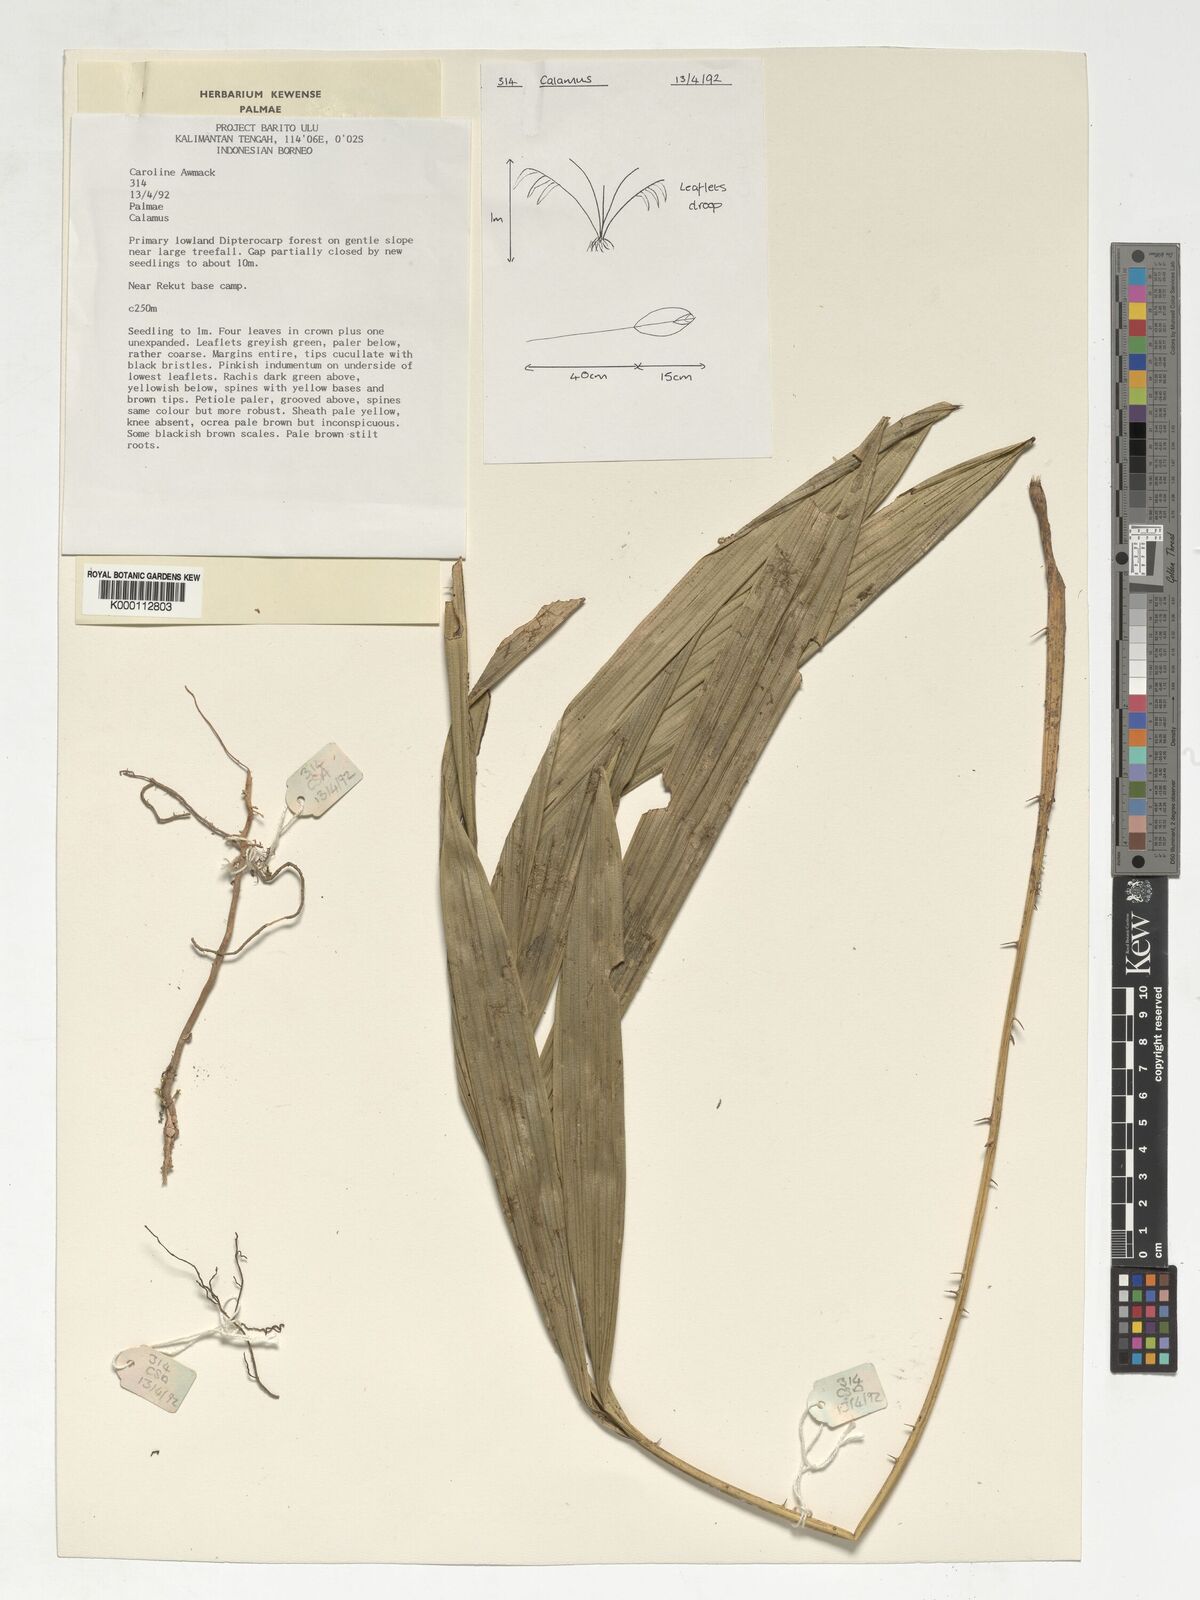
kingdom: Plantae
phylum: Tracheophyta
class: Liliopsida
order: Arecales
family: Arecaceae
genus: Calamus
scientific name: Calamus
